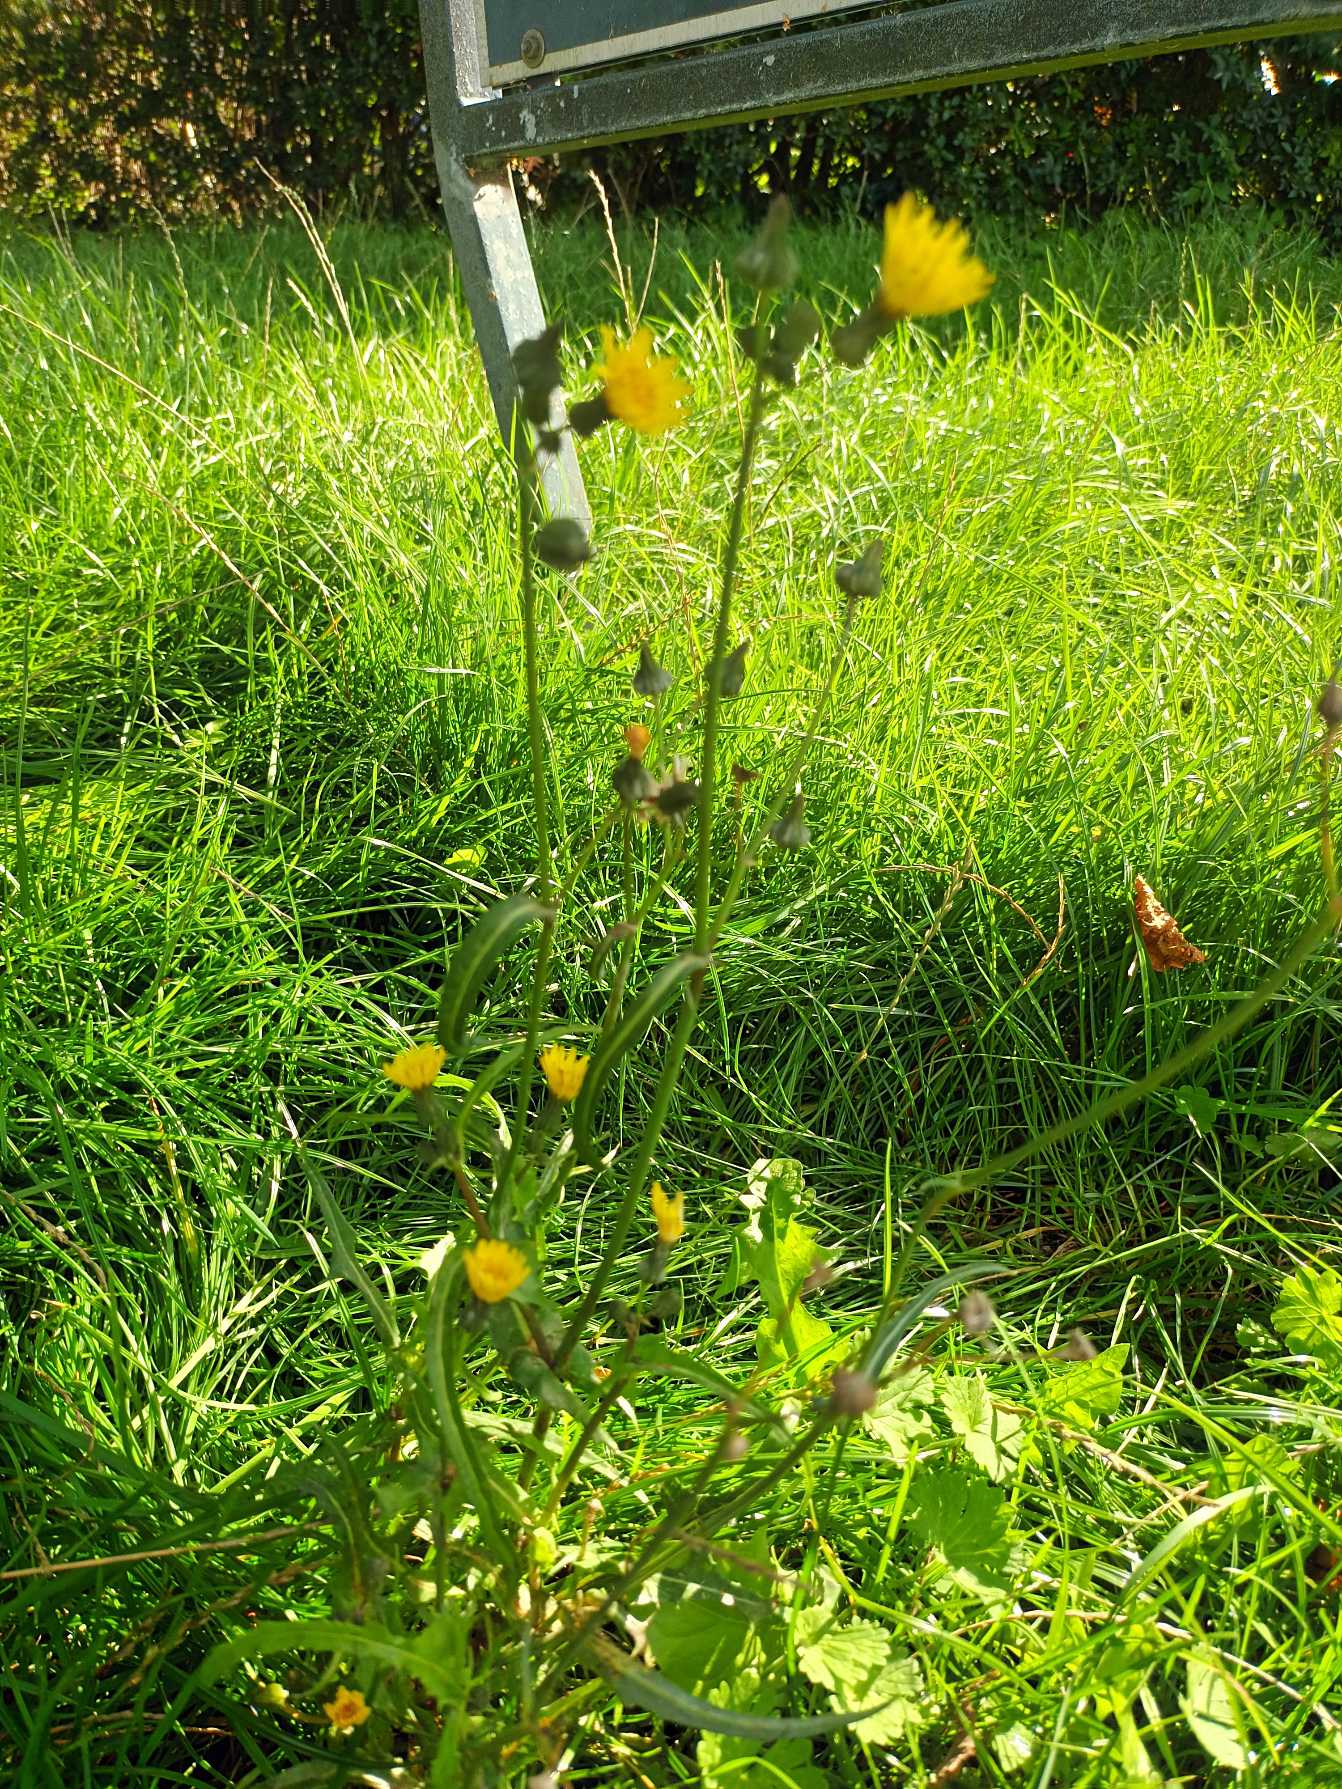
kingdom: Plantae
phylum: Tracheophyta
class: Magnoliopsida
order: Asterales
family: Asteraceae
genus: Sonchus
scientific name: Sonchus oleraceus
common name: Almindelig svinemælk
